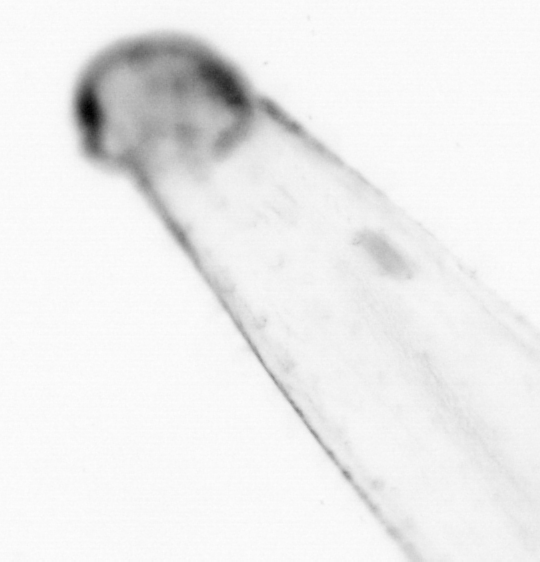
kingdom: Animalia
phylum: Chaetognatha
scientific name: Chaetognatha
